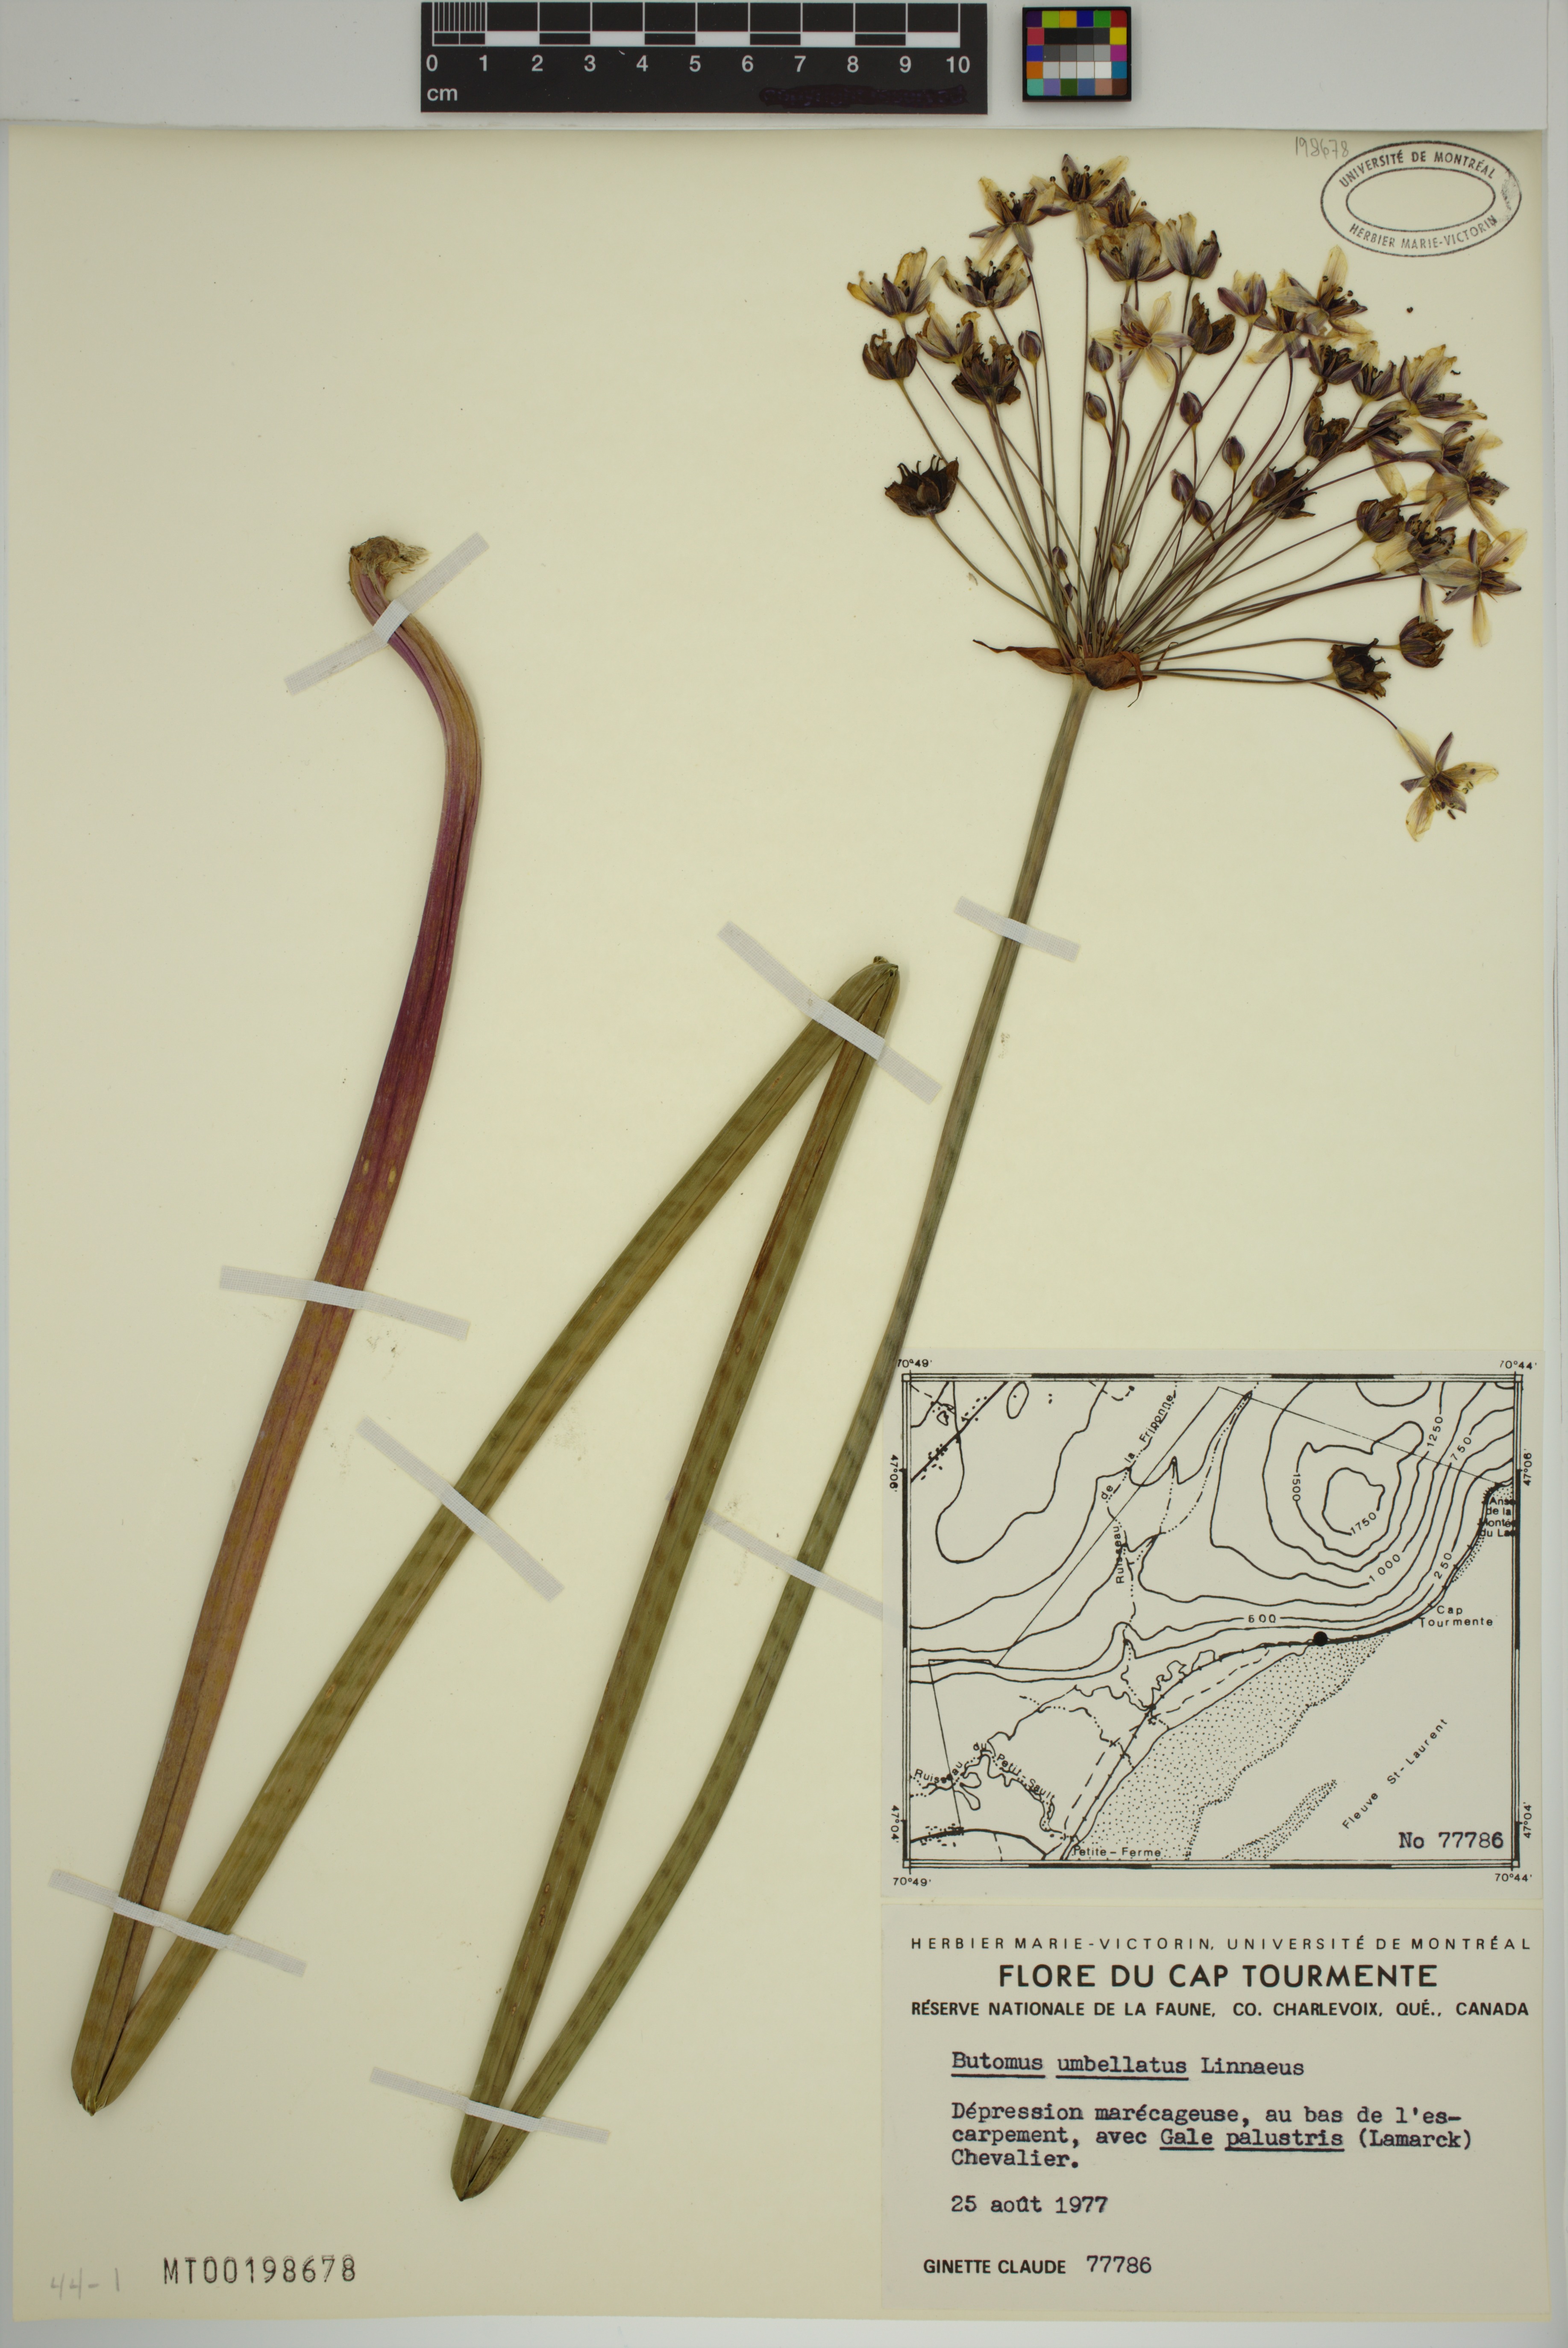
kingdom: Plantae
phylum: Tracheophyta
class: Liliopsida
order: Alismatales
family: Butomaceae
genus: Butomus
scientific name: Butomus umbellatus
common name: Flowering-rush
